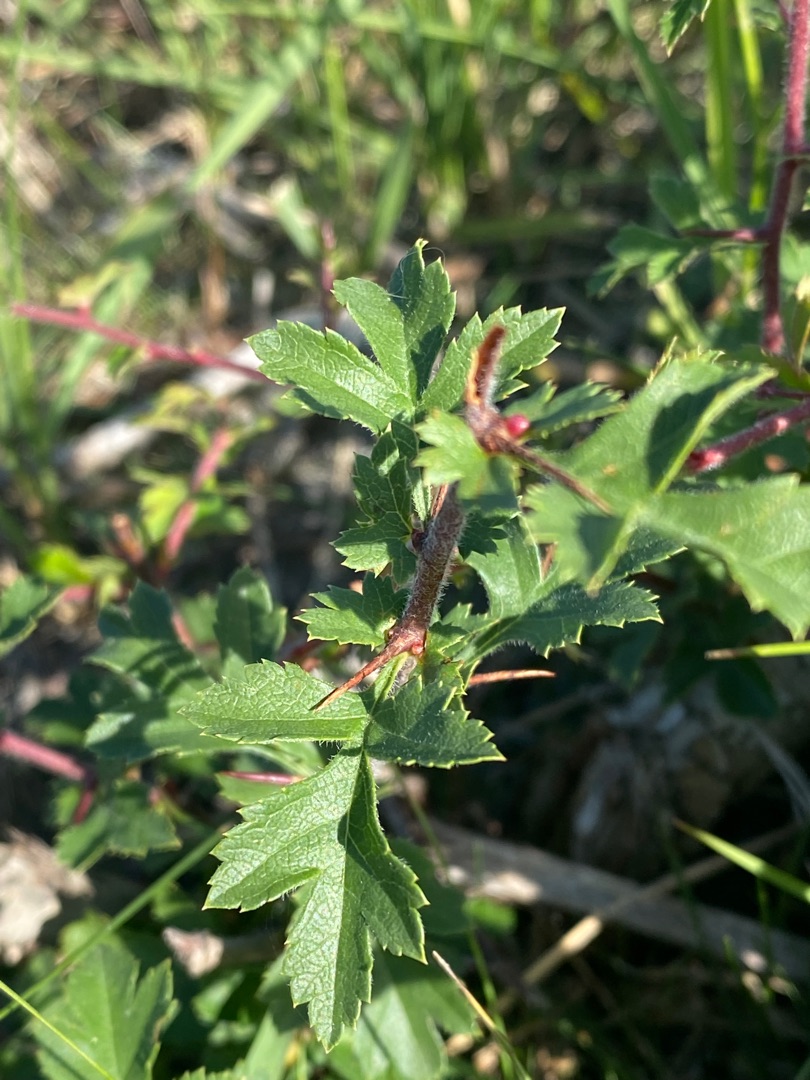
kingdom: Plantae
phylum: Tracheophyta
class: Magnoliopsida
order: Rosales
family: Rosaceae
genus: Crataegus
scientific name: Crataegus monogyna
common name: Engriflet hvidtjørn
